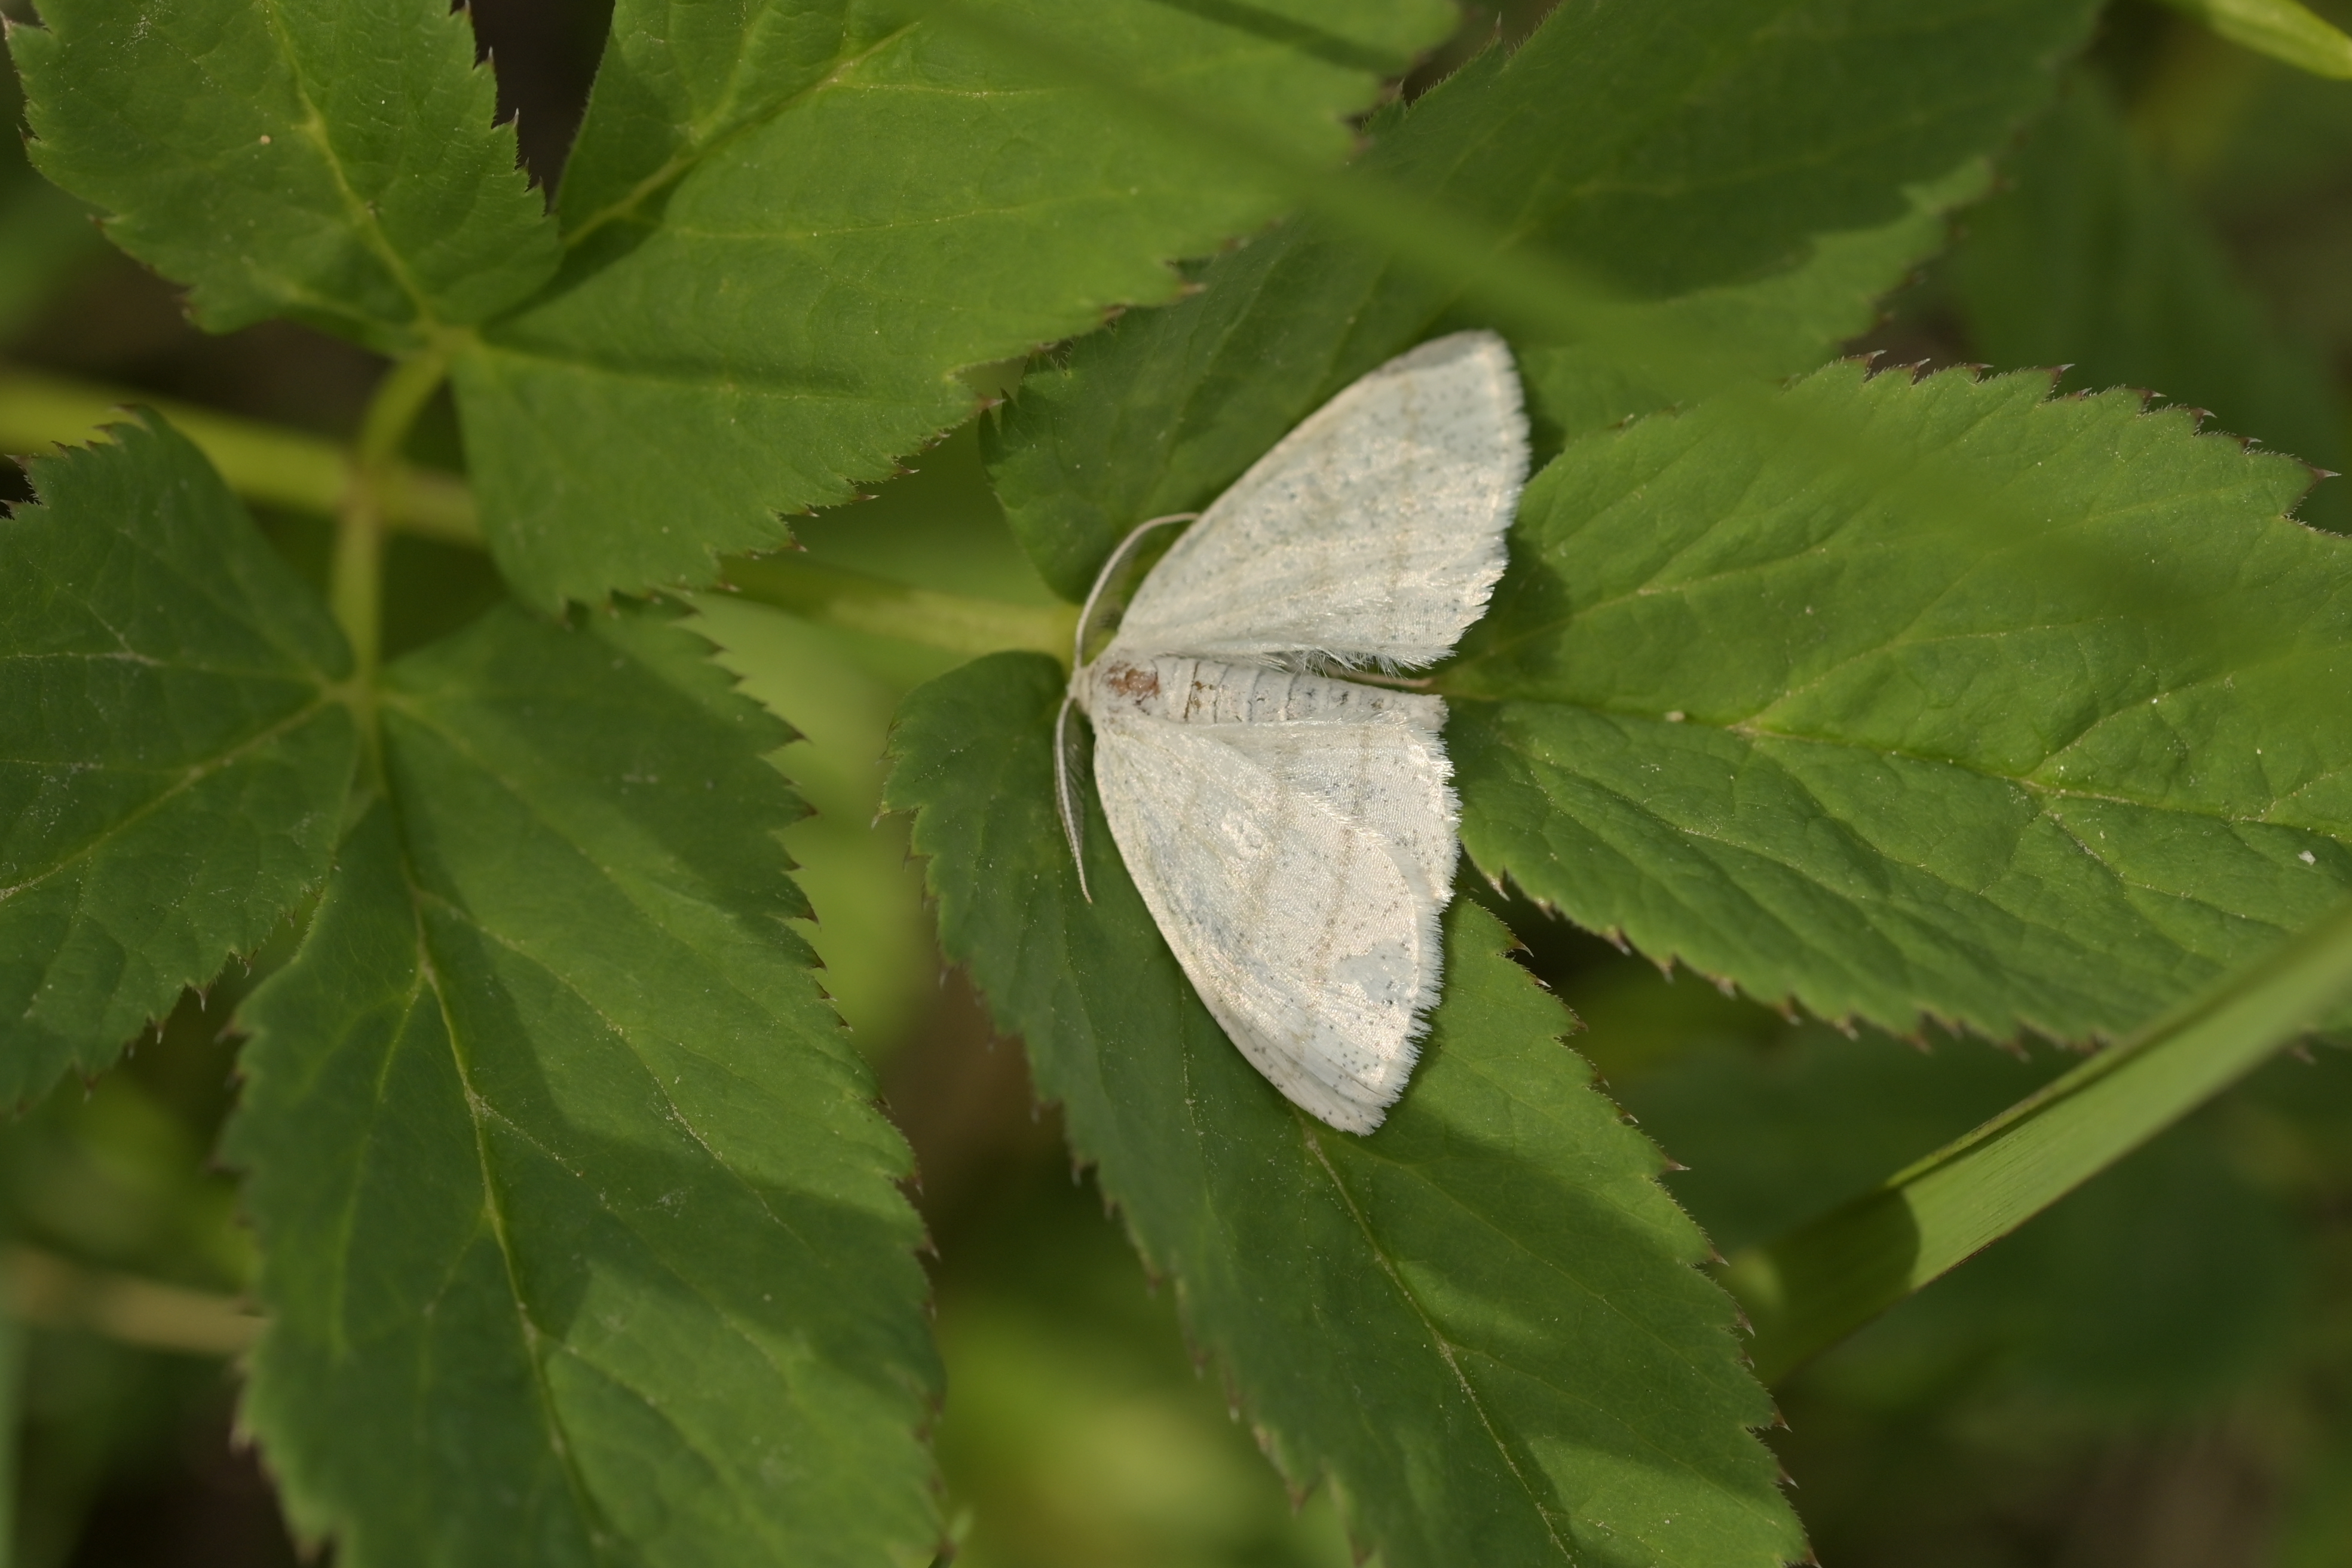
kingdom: Animalia
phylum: Arthropoda
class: Insecta
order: Lepidoptera
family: Geometridae
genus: Cabera
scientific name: Cabera pusaria
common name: Common white wave
